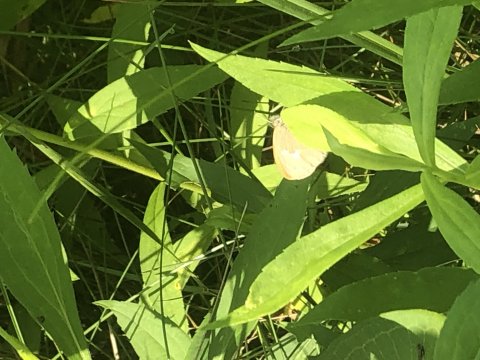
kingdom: Animalia
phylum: Arthropoda
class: Insecta
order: Lepidoptera
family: Nymphalidae
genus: Coenonympha
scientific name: Coenonympha tullia
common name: Large Heath
